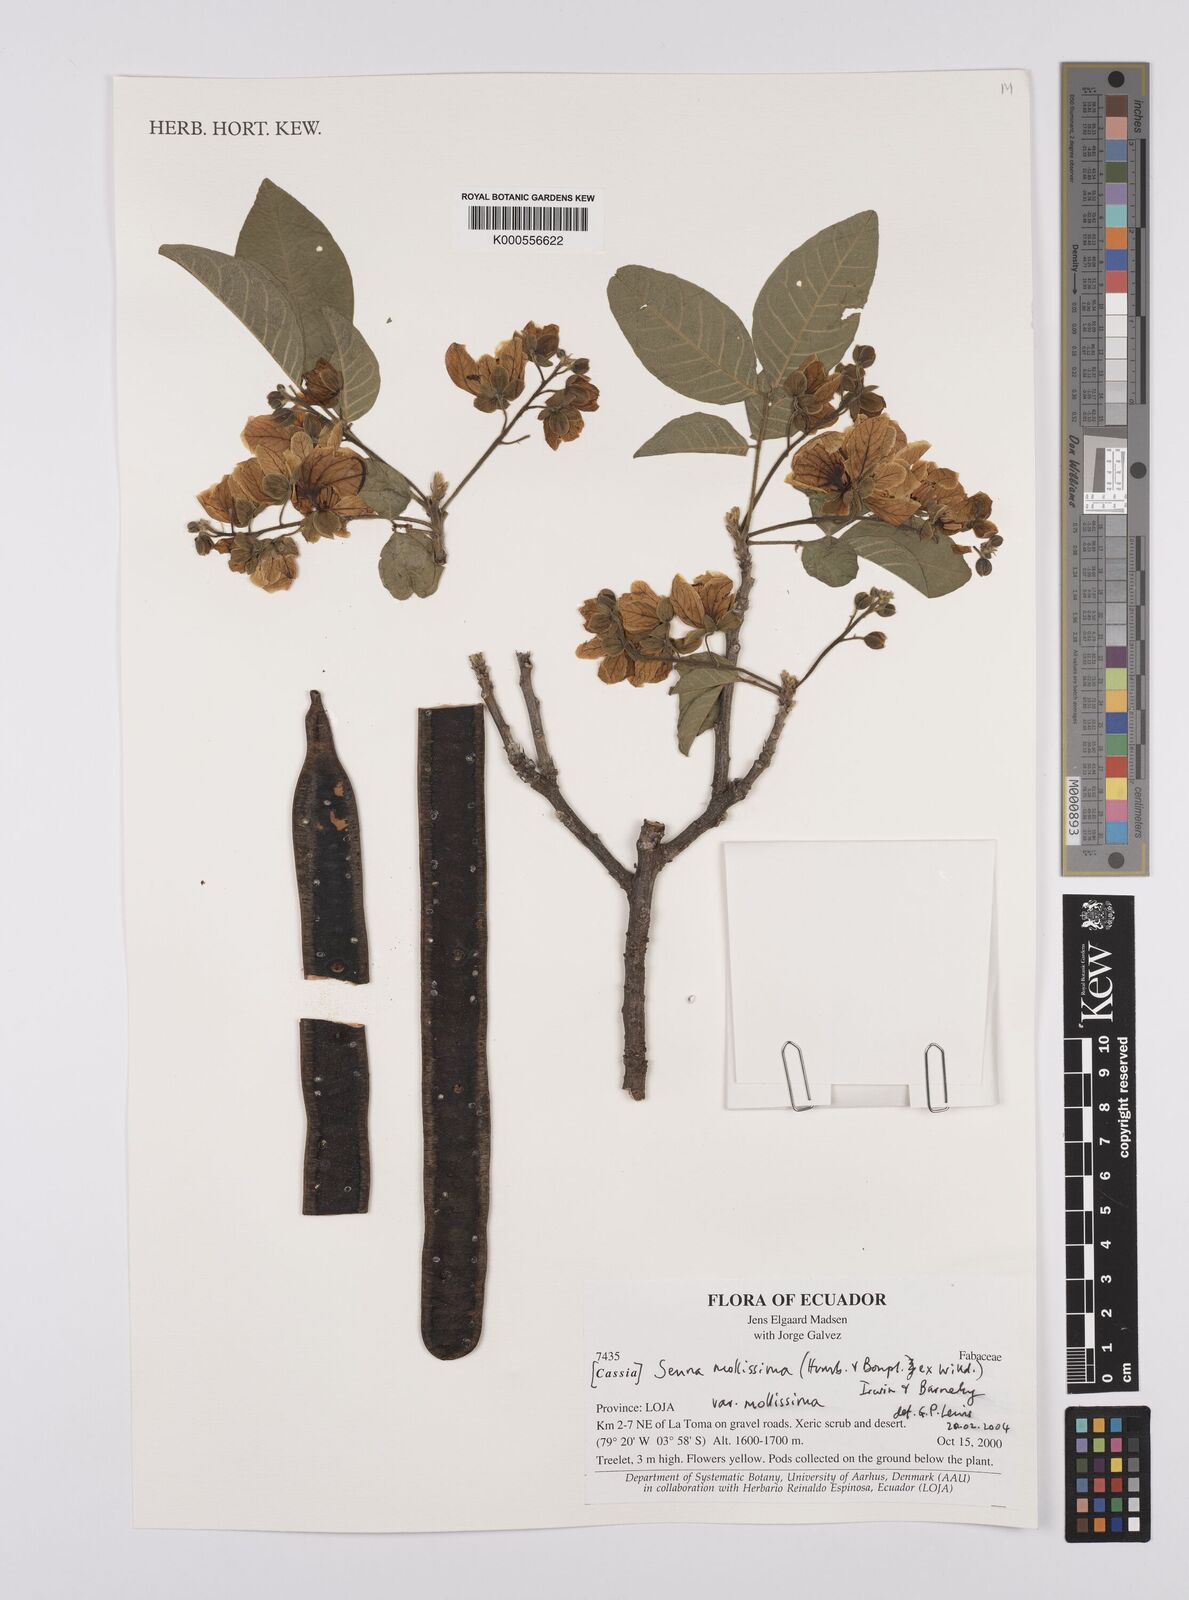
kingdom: Plantae
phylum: Tracheophyta
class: Magnoliopsida
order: Fabales
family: Fabaceae
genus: Senna
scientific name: Senna mollissima
